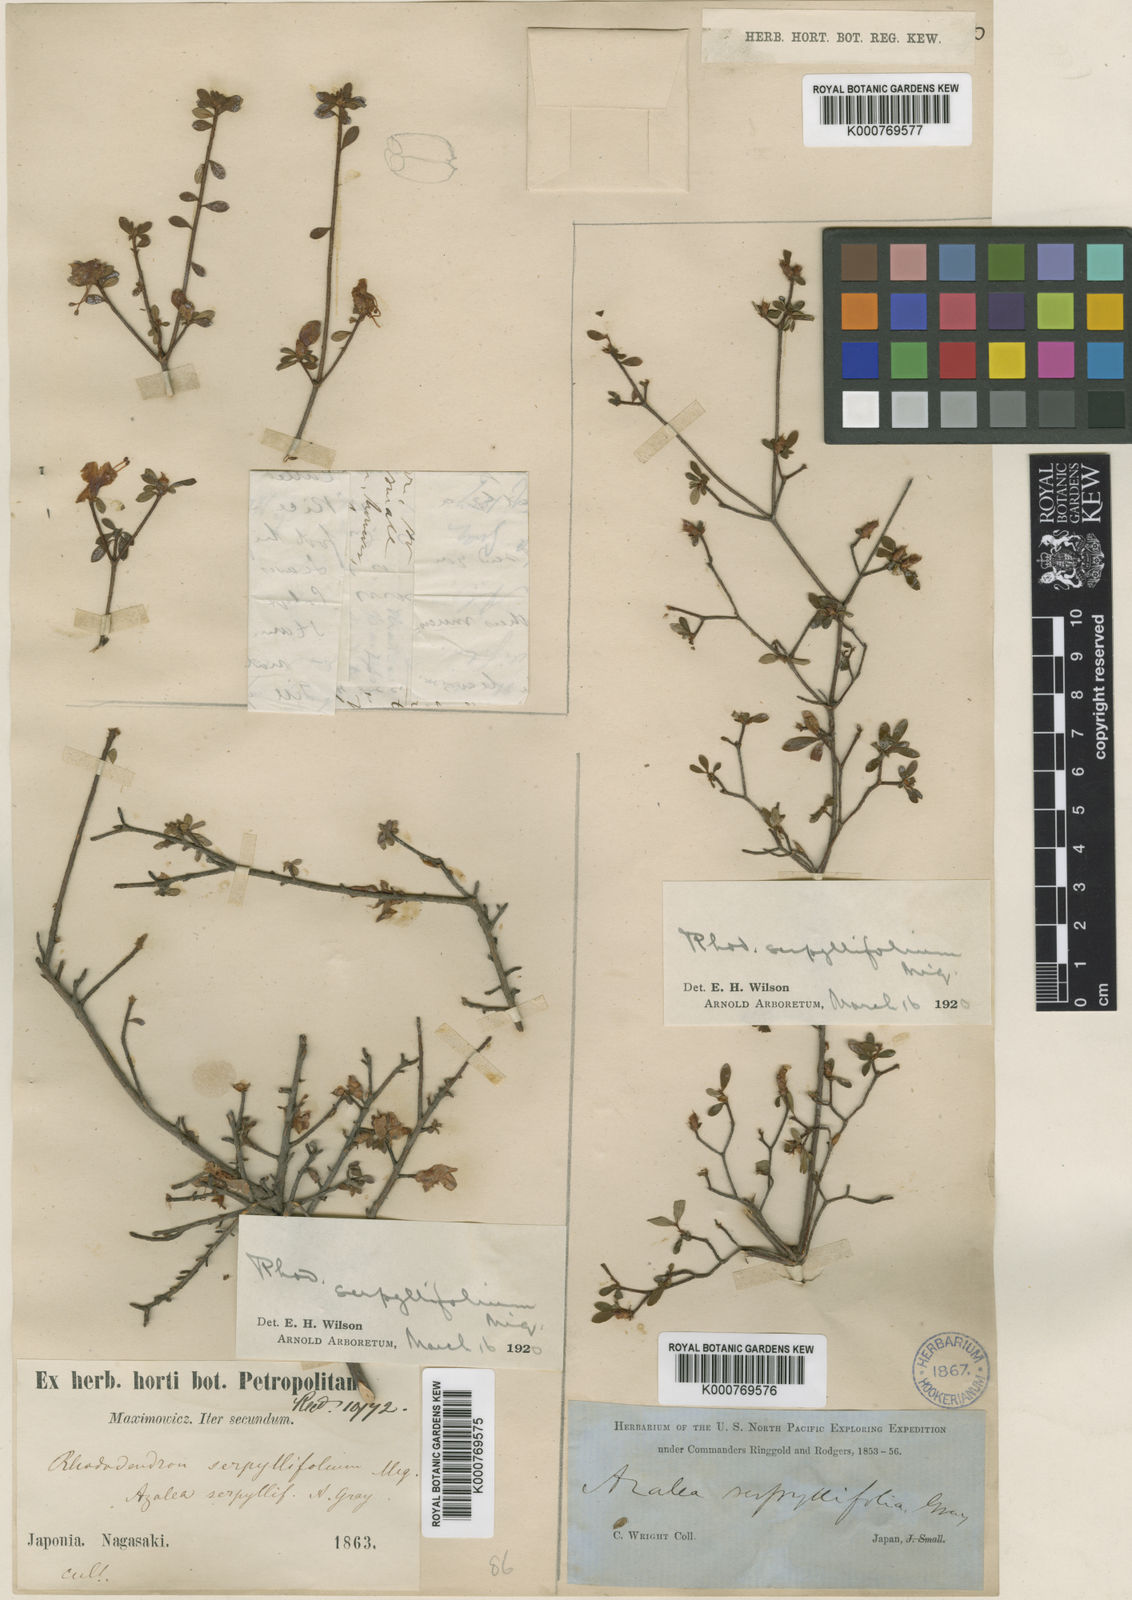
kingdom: Plantae
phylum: Tracheophyta
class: Magnoliopsida
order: Ericales
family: Ericaceae
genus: Rhododendron
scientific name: Rhododendron serpyllifolium
